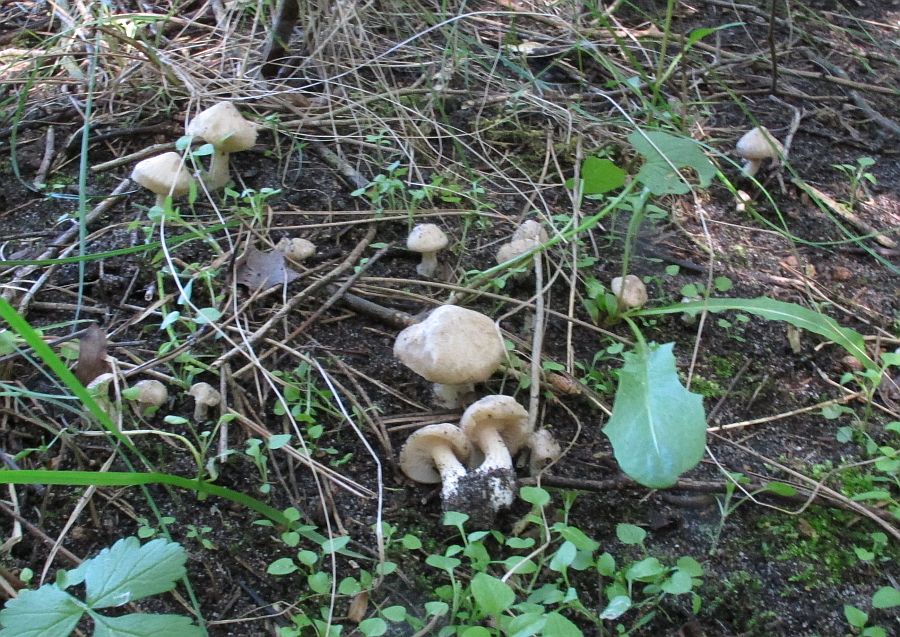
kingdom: Fungi
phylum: Basidiomycota
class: Agaricomycetes
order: Agaricales
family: Entolomataceae
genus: Entoloma
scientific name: Entoloma sepium
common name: slåen-rødblad
